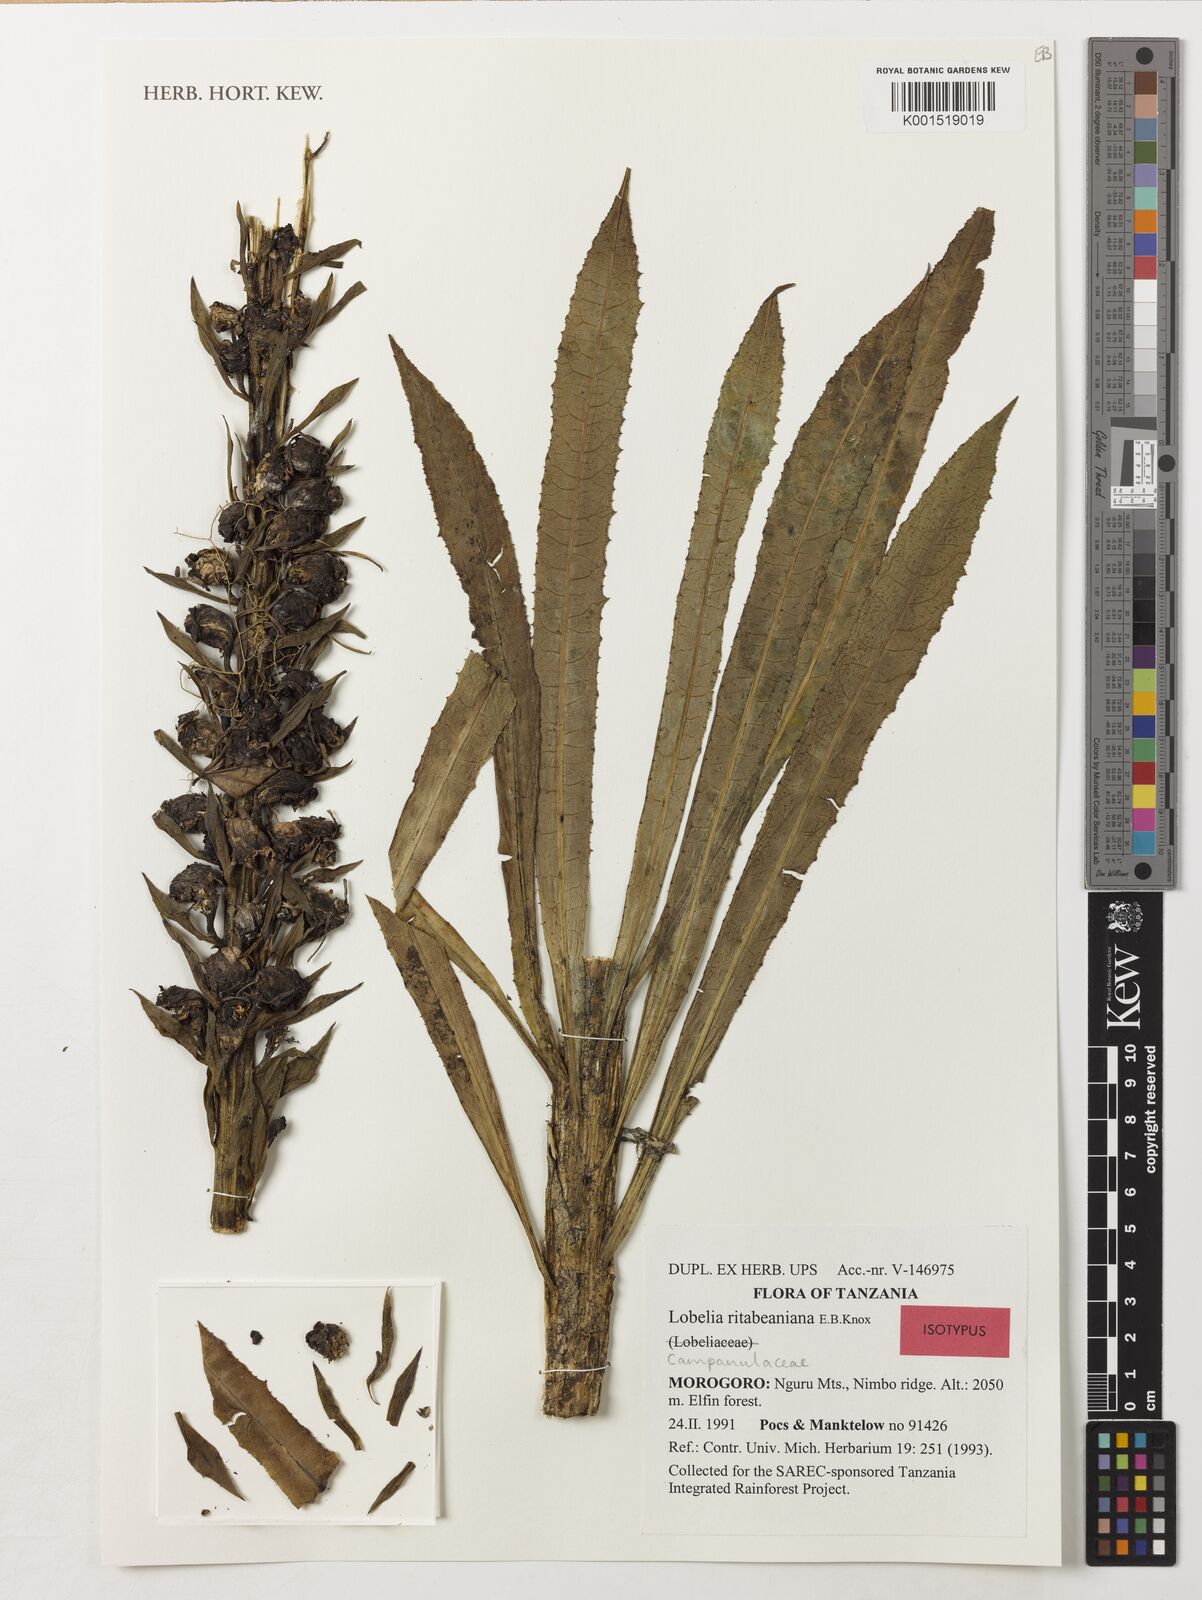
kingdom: Plantae
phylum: Tracheophyta
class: Magnoliopsida
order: Asterales
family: Campanulaceae
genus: Lobelia
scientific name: Lobelia ritabeaniana
